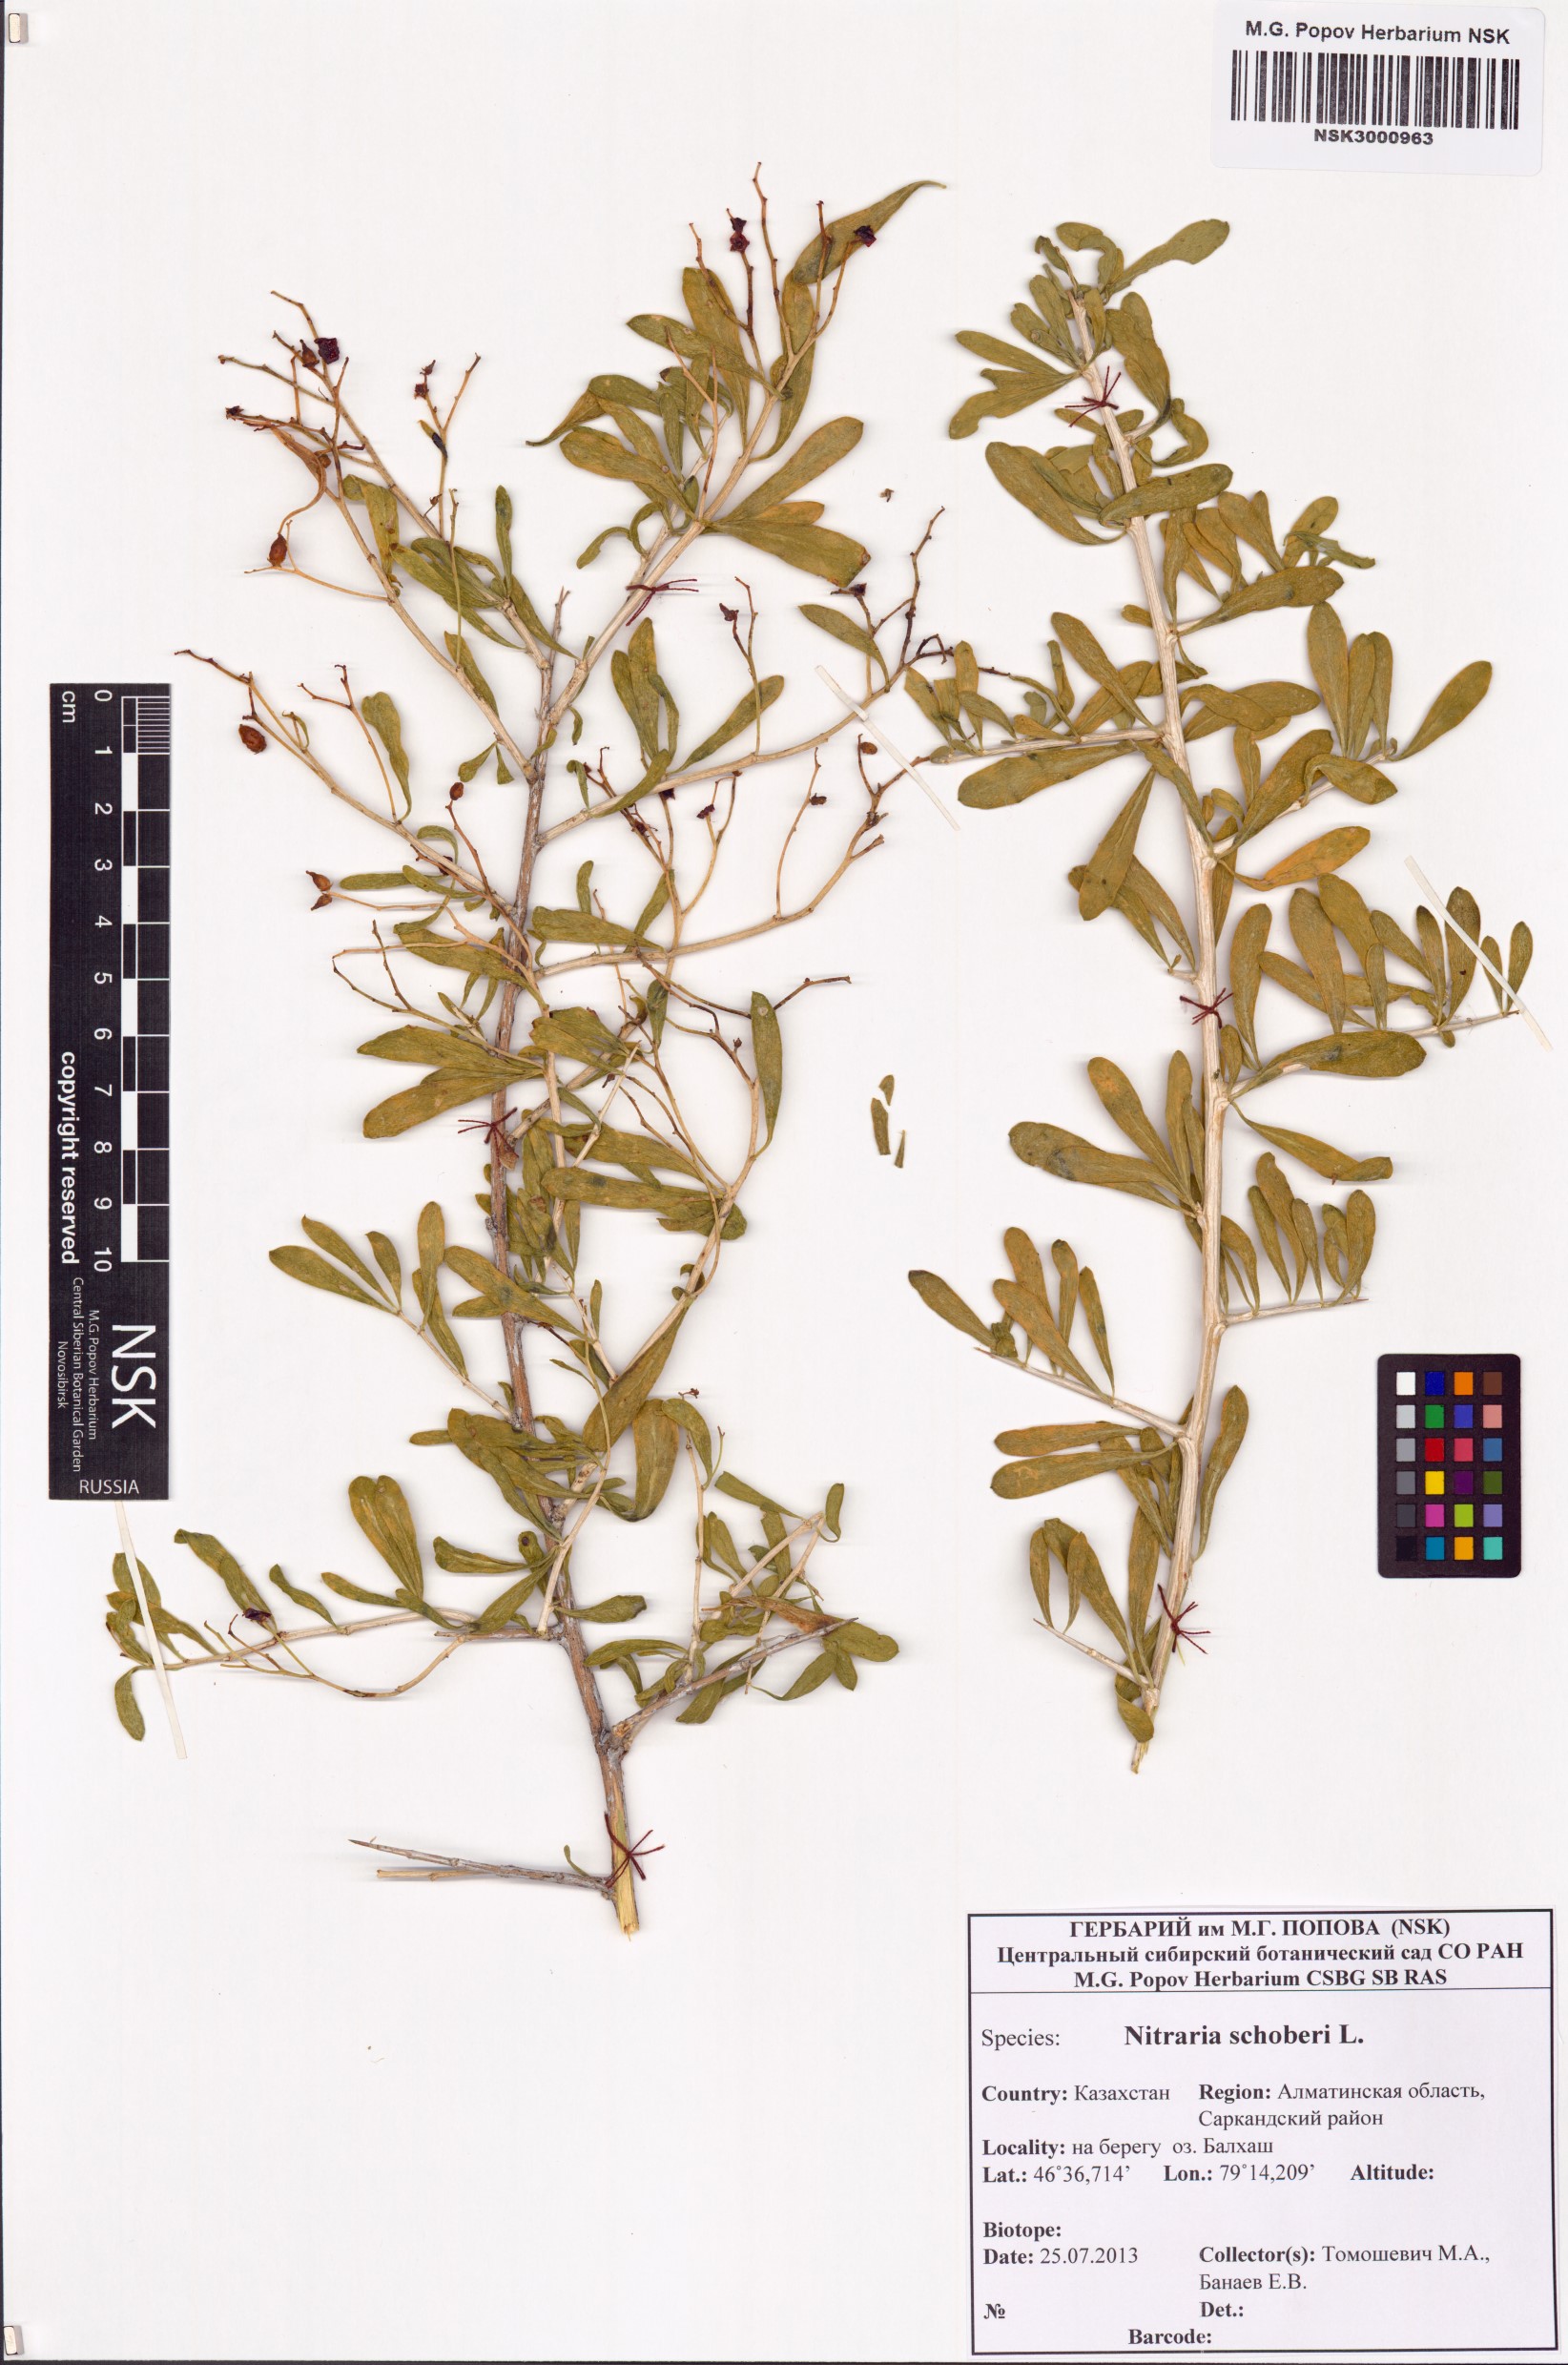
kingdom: Plantae
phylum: Tracheophyta
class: Magnoliopsida
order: Sapindales
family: Nitrariaceae
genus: Nitraria
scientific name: Nitraria schoberi
